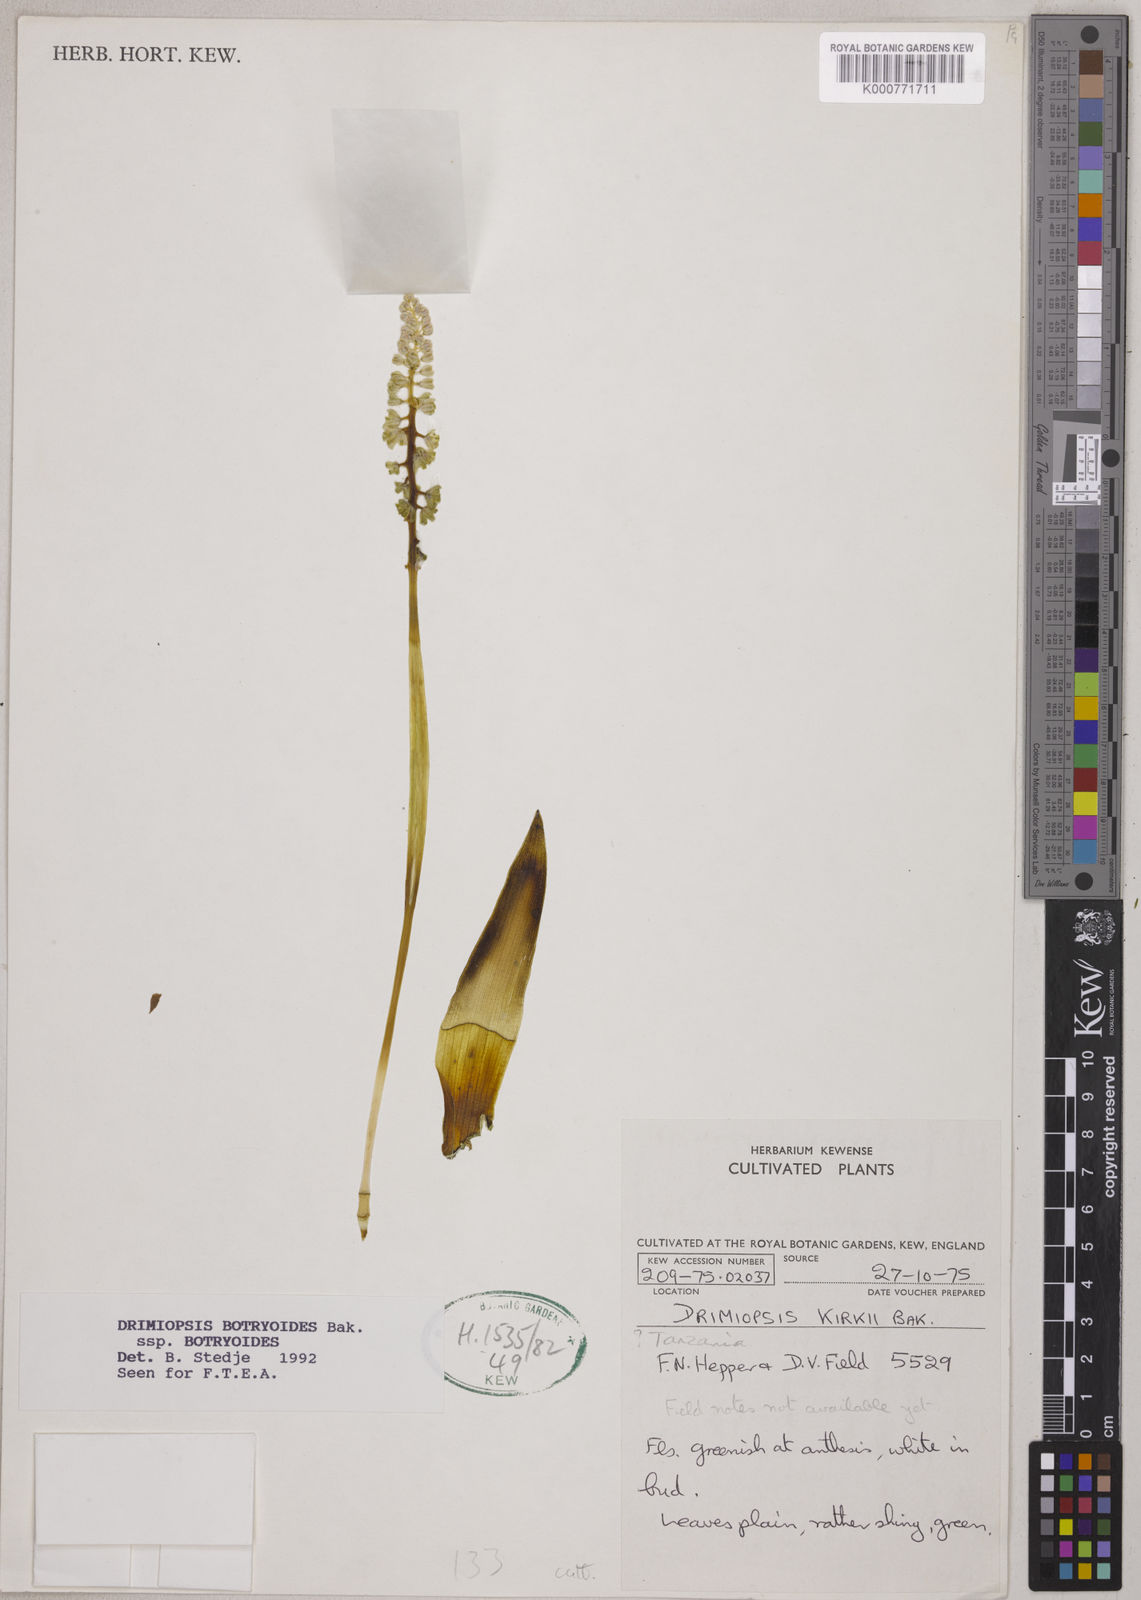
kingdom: Plantae
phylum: Tracheophyta
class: Liliopsida
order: Asparagales
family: Asparagaceae
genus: Drimiopsis
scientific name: Drimiopsis botryoides
